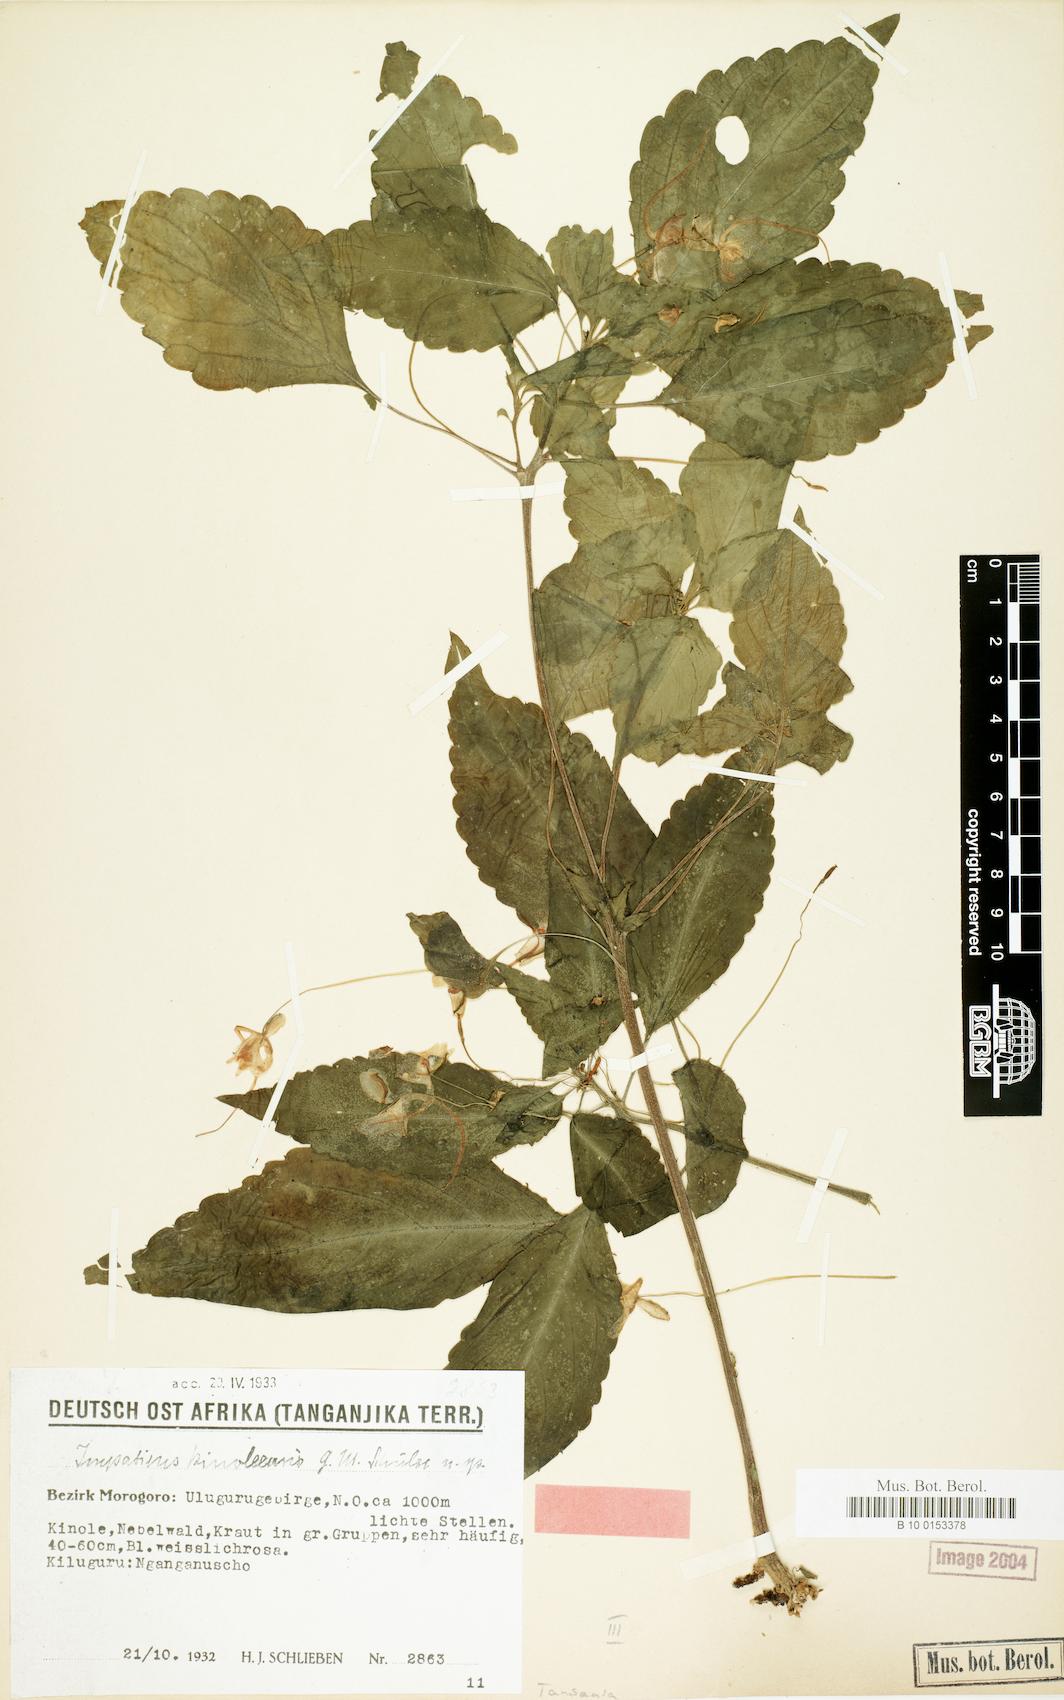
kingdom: Plantae
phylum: Tracheophyta
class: Magnoliopsida
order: Ericales
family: Balsaminaceae
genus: Impatiens
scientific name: Impatiens engleri
